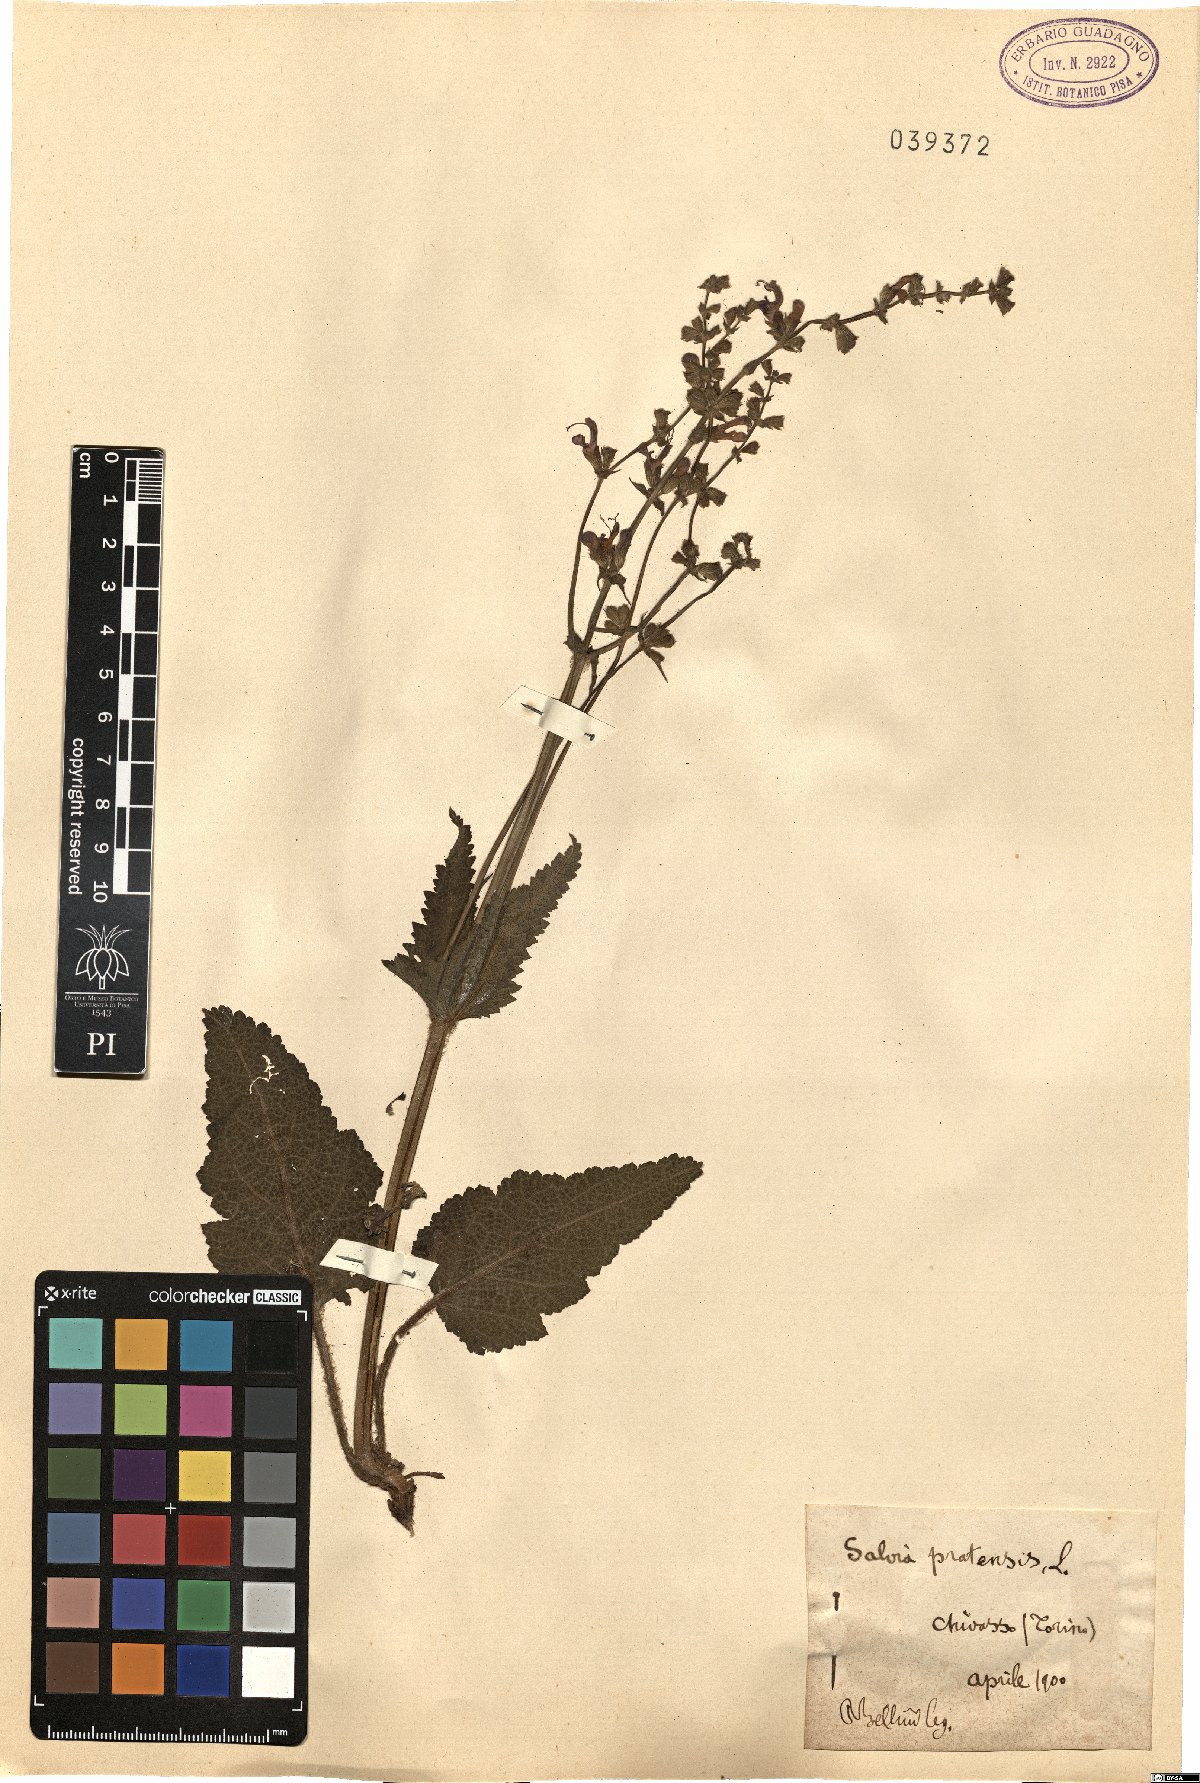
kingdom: Plantae
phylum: Tracheophyta
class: Magnoliopsida
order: Lamiales
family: Lamiaceae
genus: Salvia
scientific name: Salvia pratensis
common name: Meadow sage
